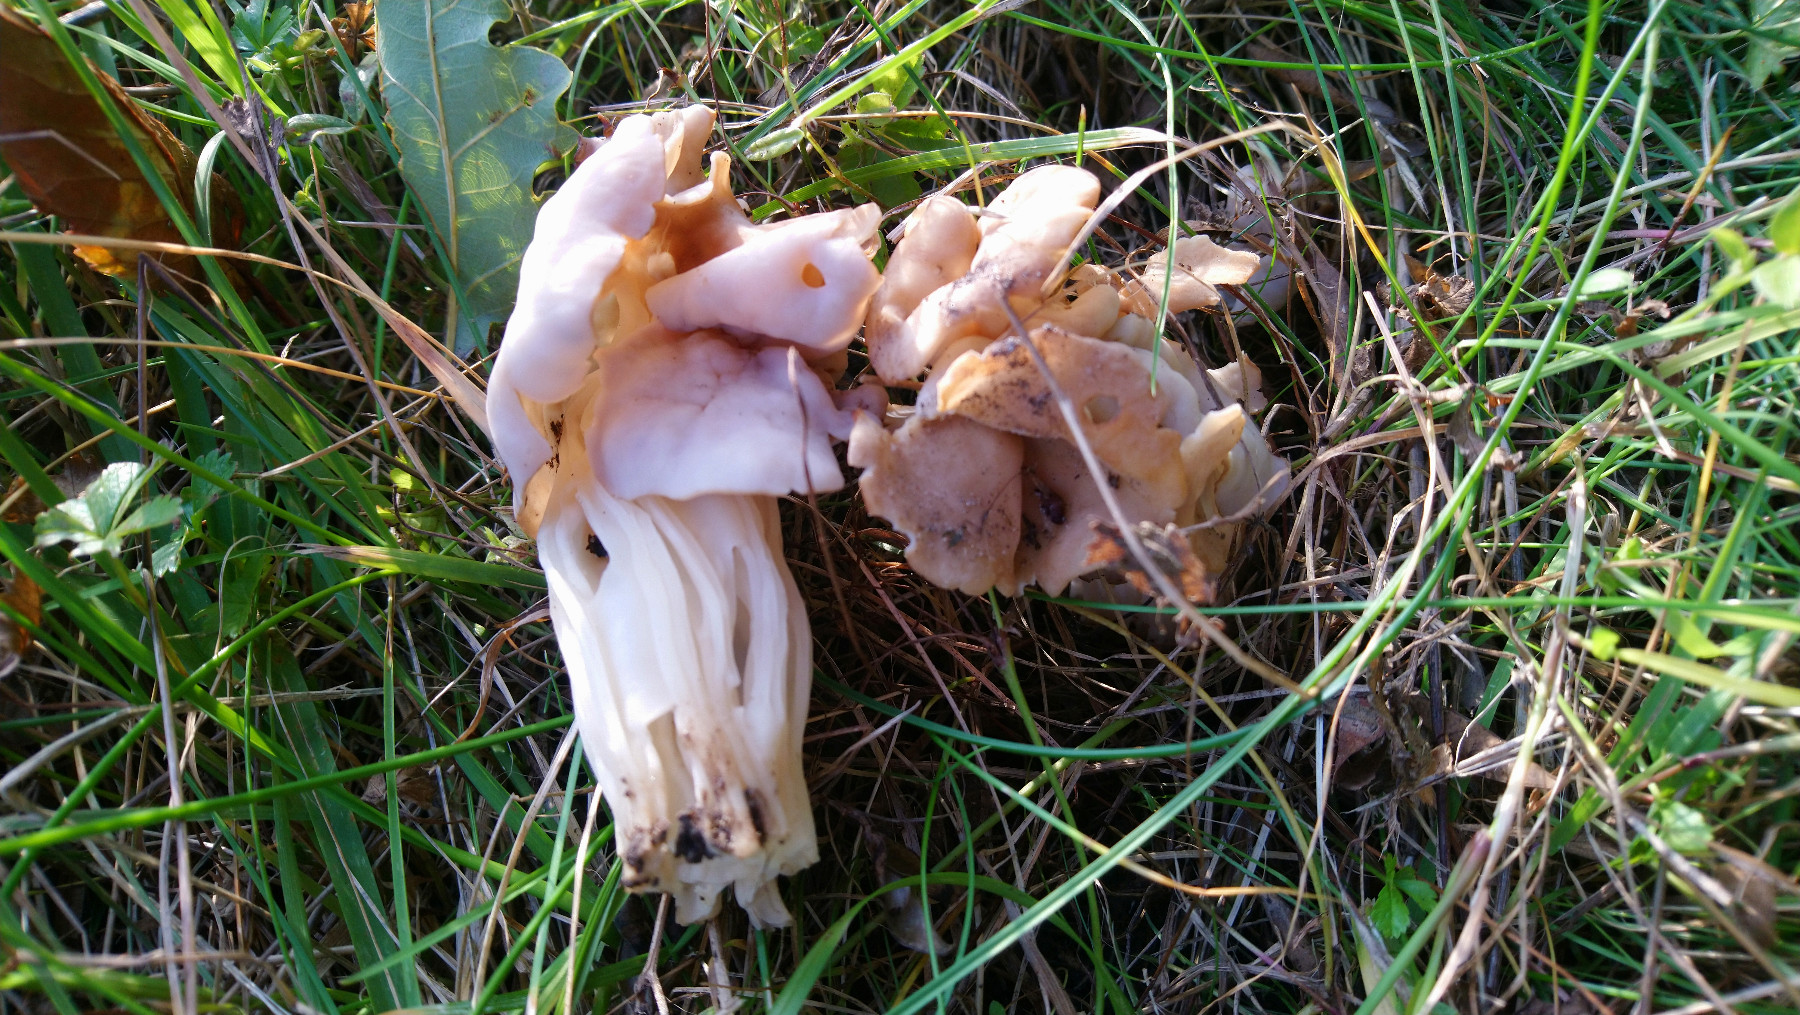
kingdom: Fungi
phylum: Ascomycota
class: Pezizomycetes
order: Pezizales
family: Helvellaceae
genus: Helvella
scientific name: Helvella crispa
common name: kruset foldhat
